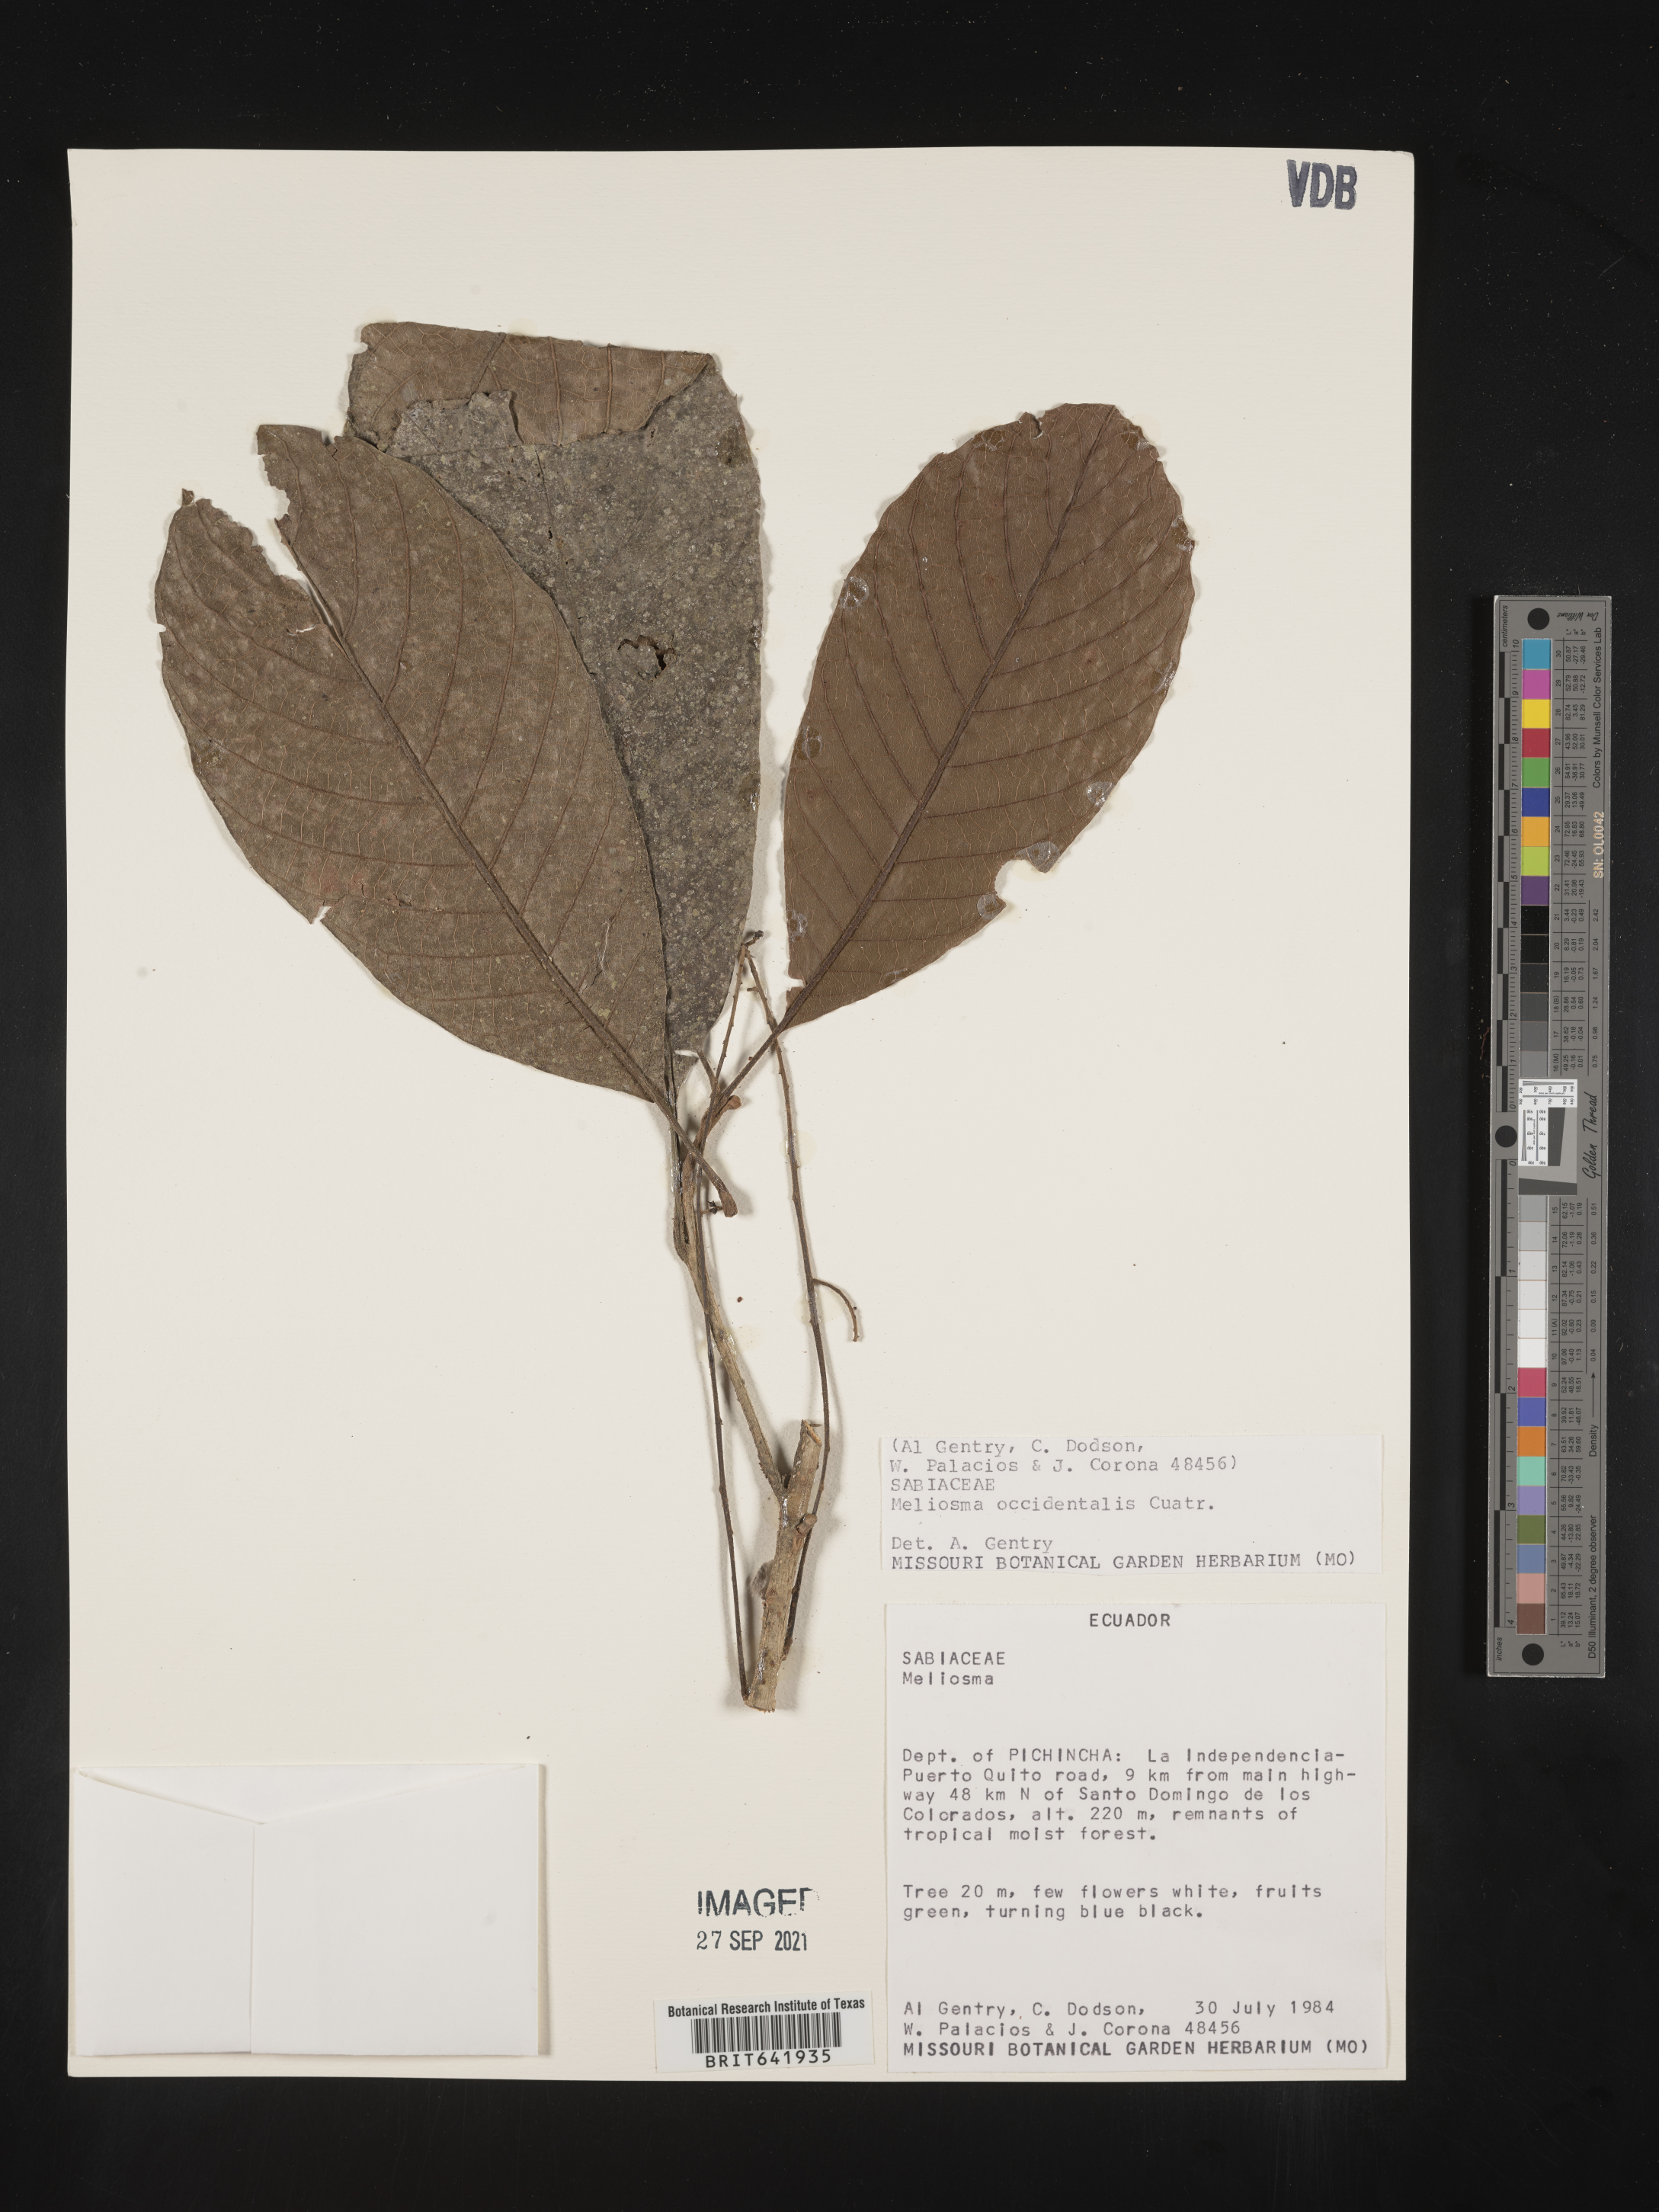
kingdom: Plantae
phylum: Tracheophyta
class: Magnoliopsida
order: Proteales
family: Sabiaceae
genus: Meliosma
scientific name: Meliosma
